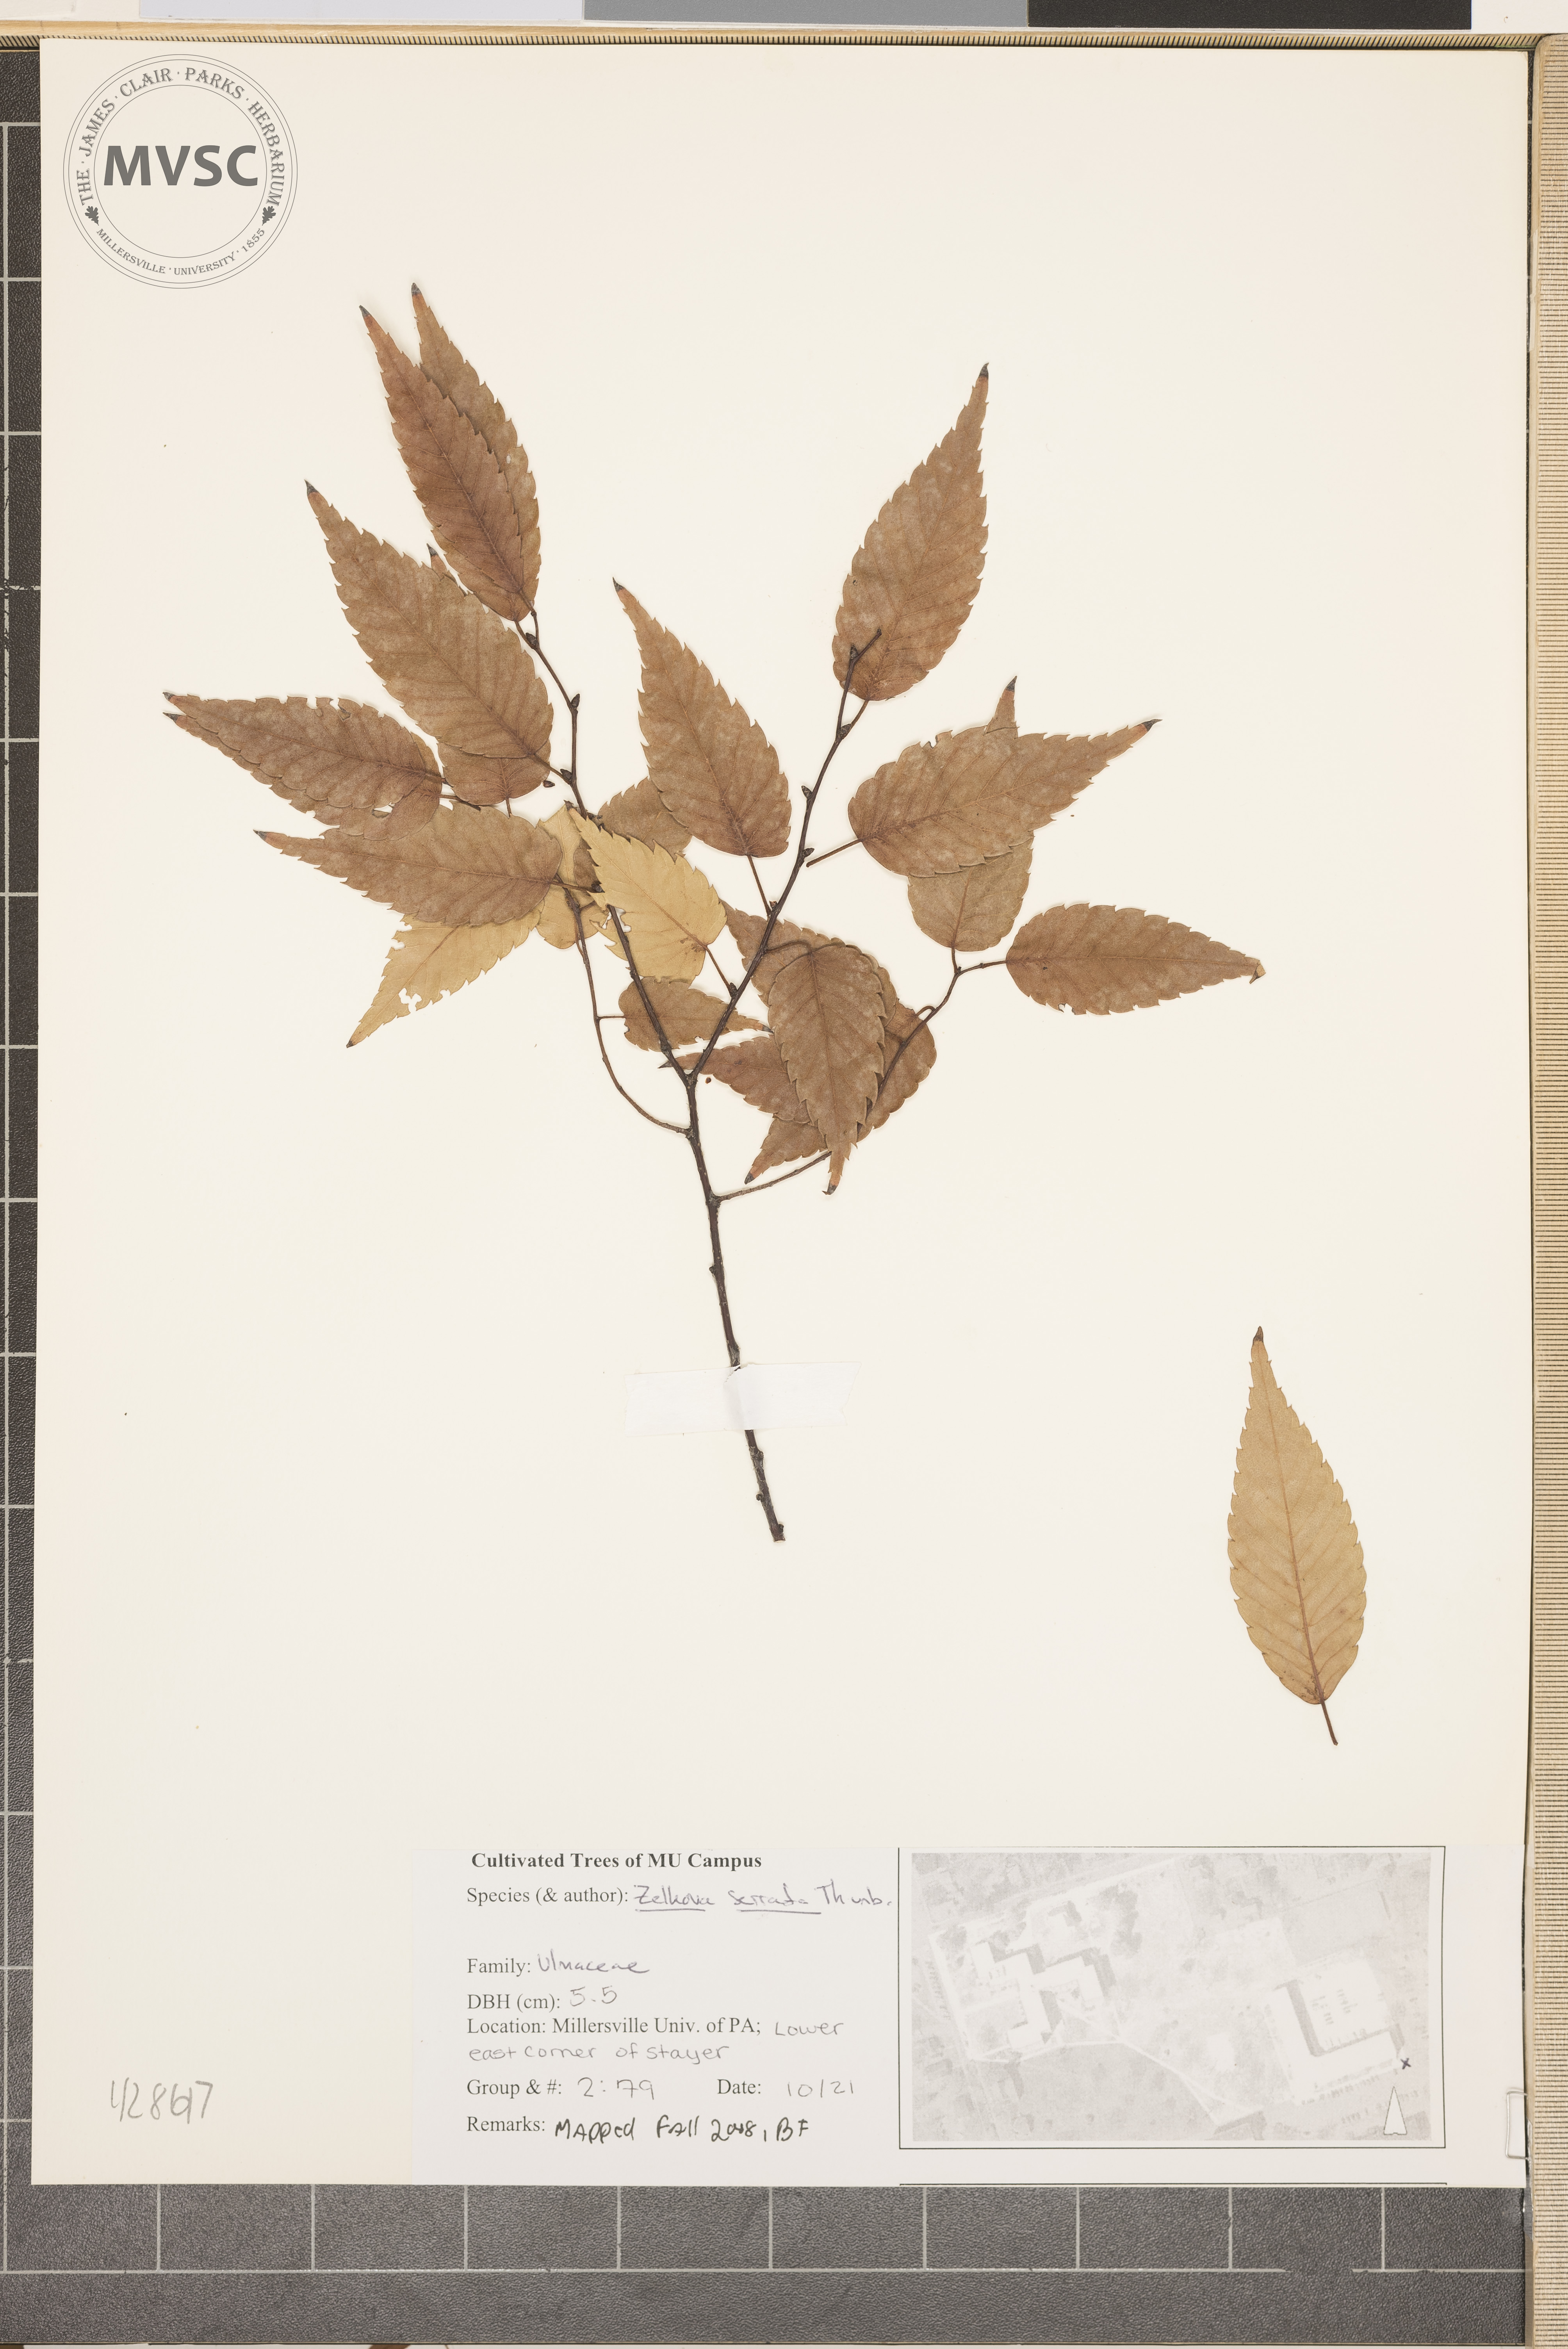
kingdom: Plantae
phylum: Tracheophyta
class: Magnoliopsida
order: Rosales
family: Ulmaceae
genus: Zelkova
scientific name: Zelkova serrata
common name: Japanese Zelkova
